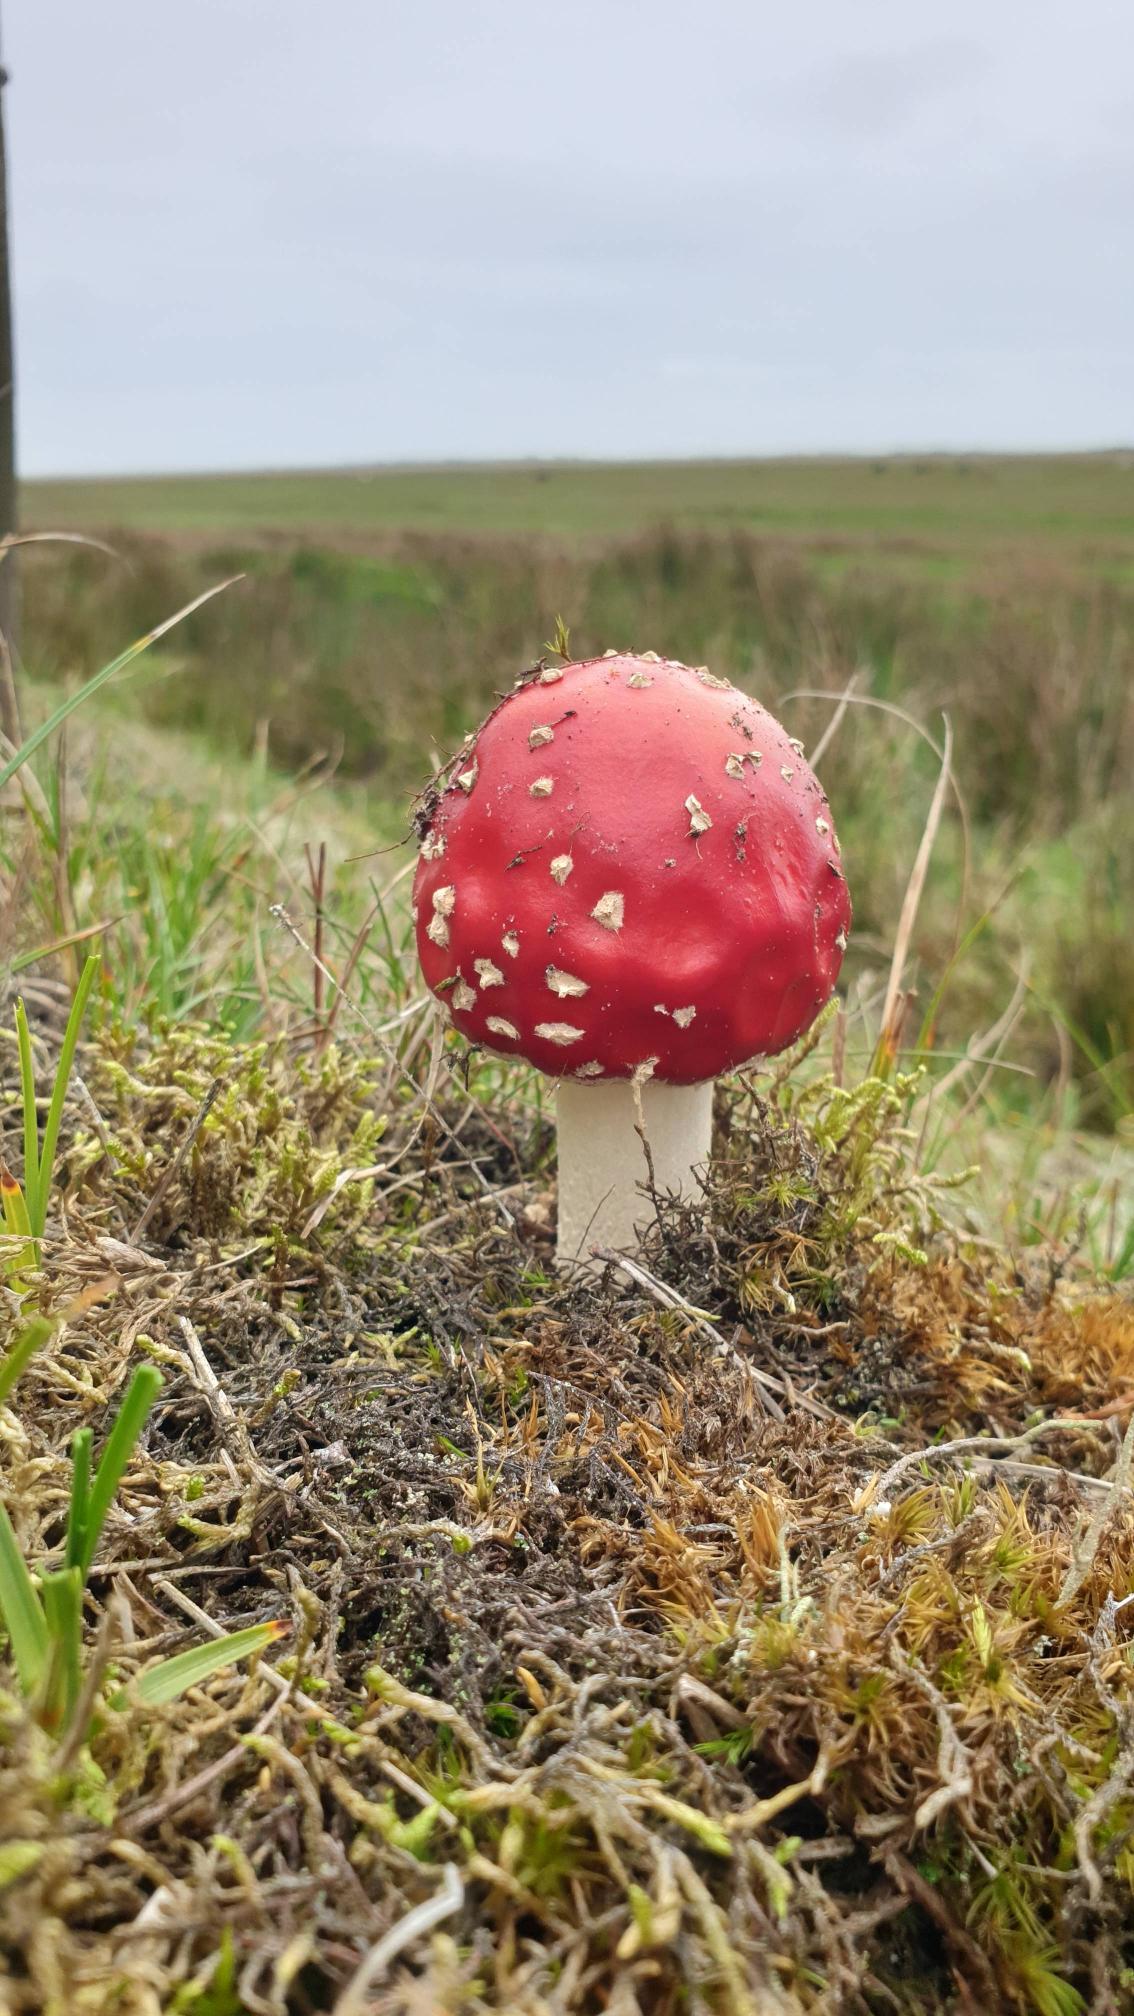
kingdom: Fungi
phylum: Basidiomycota
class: Agaricomycetes
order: Agaricales
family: Amanitaceae
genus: Amanita
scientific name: Amanita muscaria
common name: Rød fluesvamp
